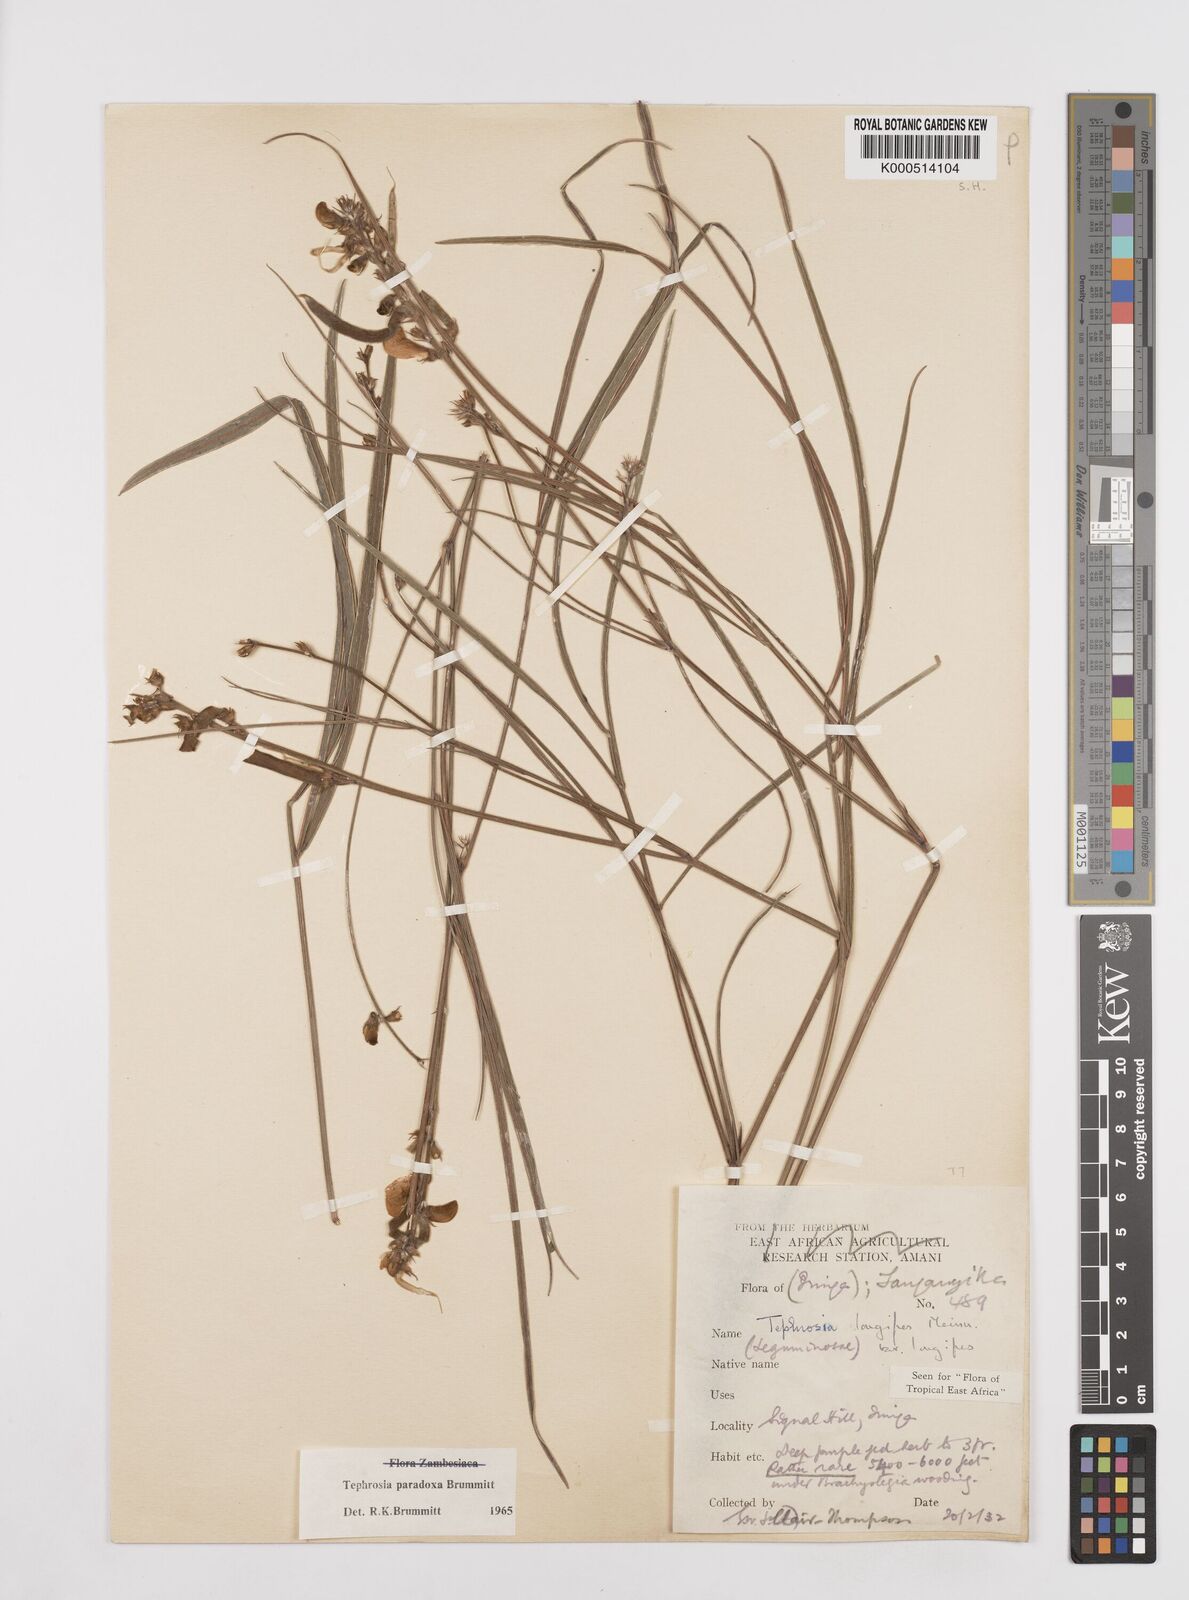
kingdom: Plantae
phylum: Tracheophyta
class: Magnoliopsida
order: Fabales
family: Fabaceae
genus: Tephrosia
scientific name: Tephrosia paradoxa
